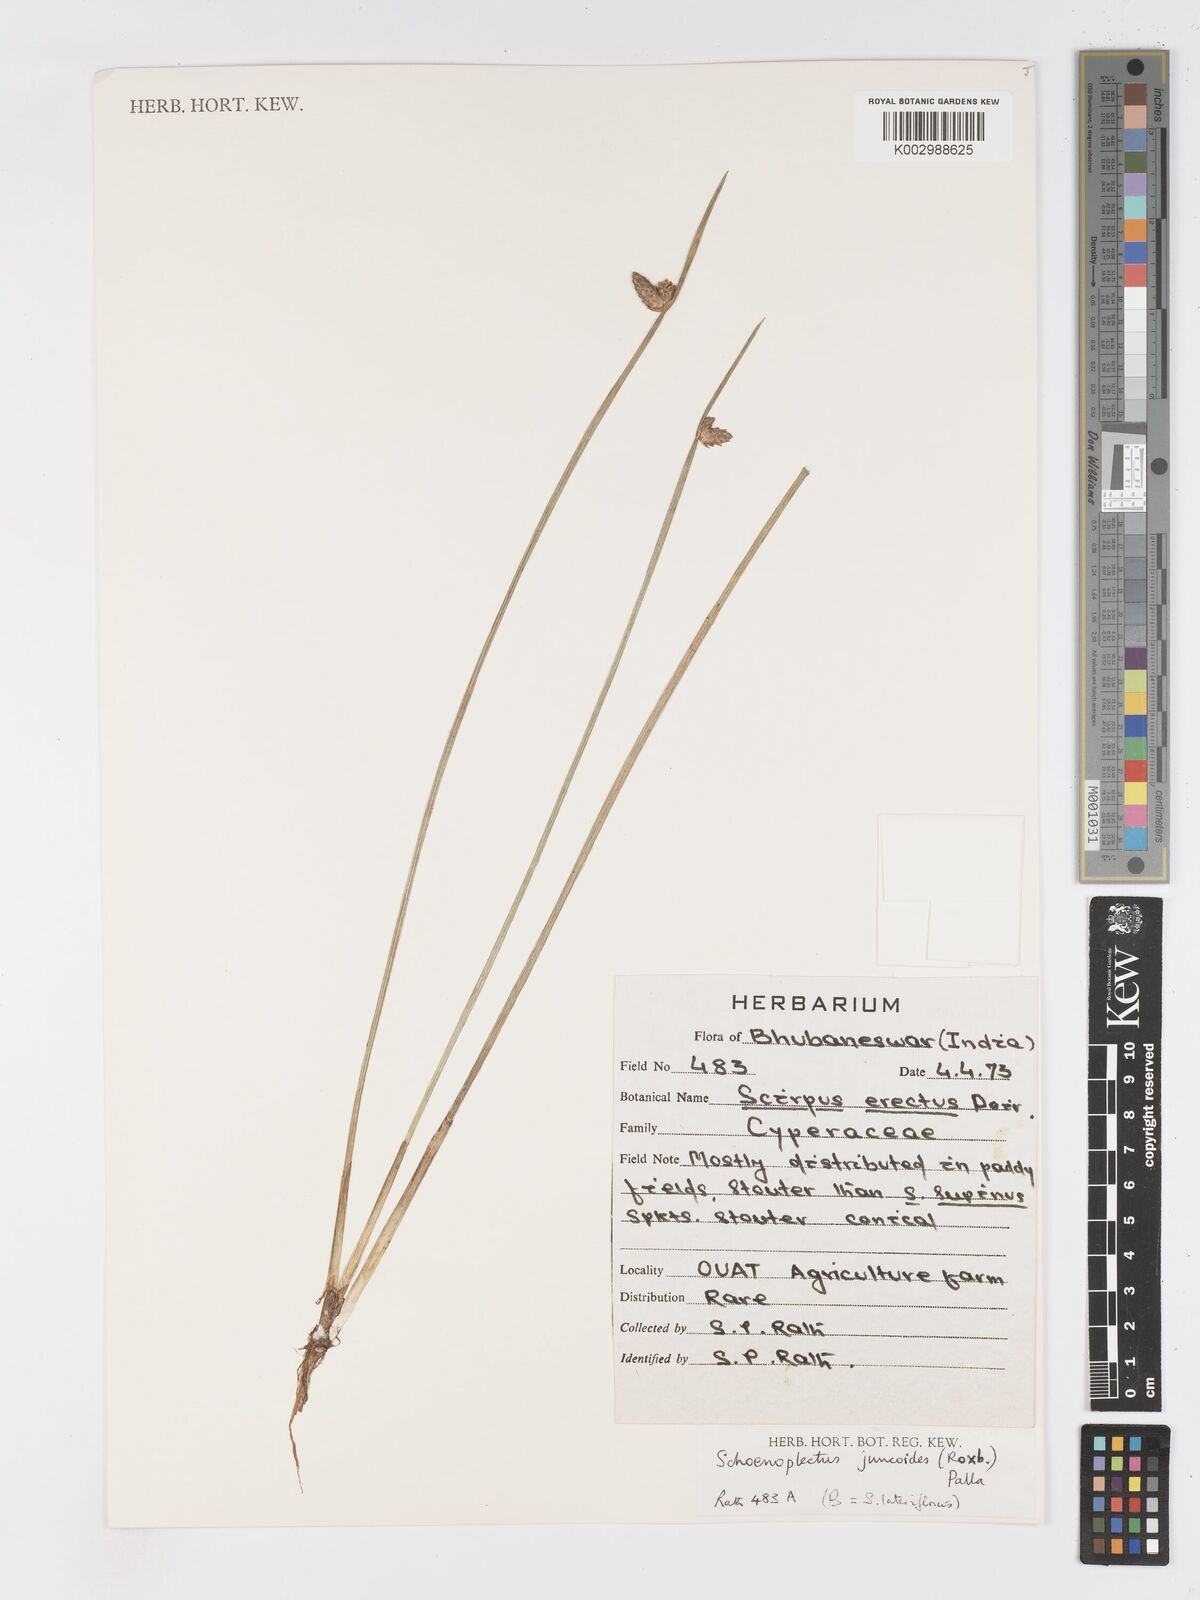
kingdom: Plantae
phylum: Tracheophyta
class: Liliopsida
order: Poales
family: Cyperaceae
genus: Schoenoplectiella
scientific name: Schoenoplectiella juncoides
